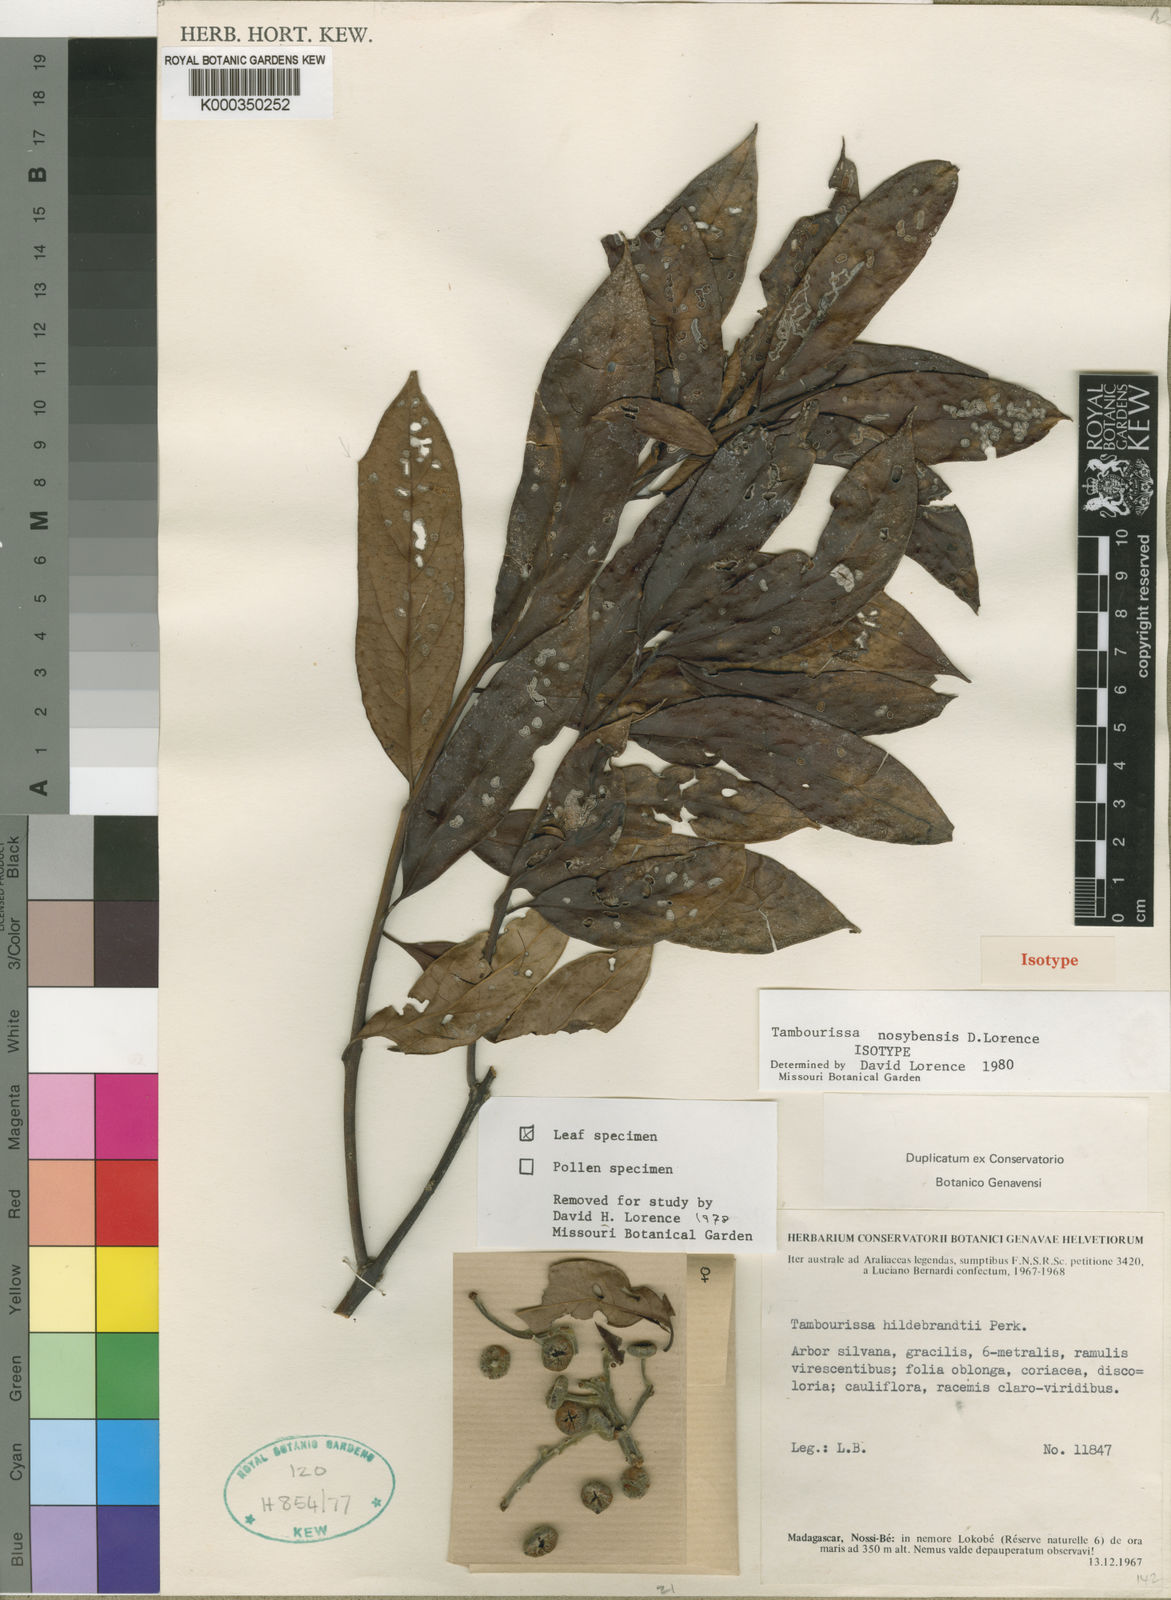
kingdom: Plantae
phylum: Tracheophyta
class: Magnoliopsida
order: Laurales
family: Monimiaceae
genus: Tambourissa
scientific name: Tambourissa nosybensis
